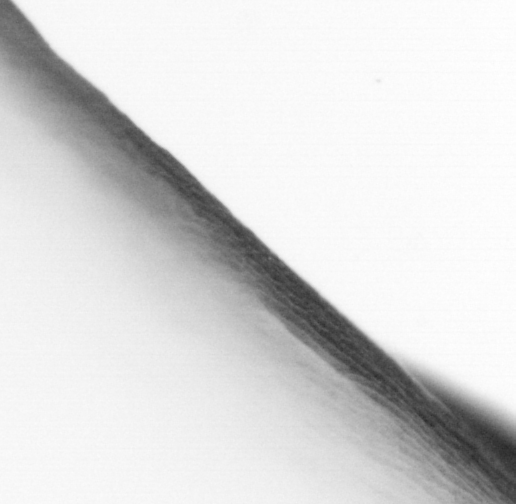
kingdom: Animalia
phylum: Chordata
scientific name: Chordata
